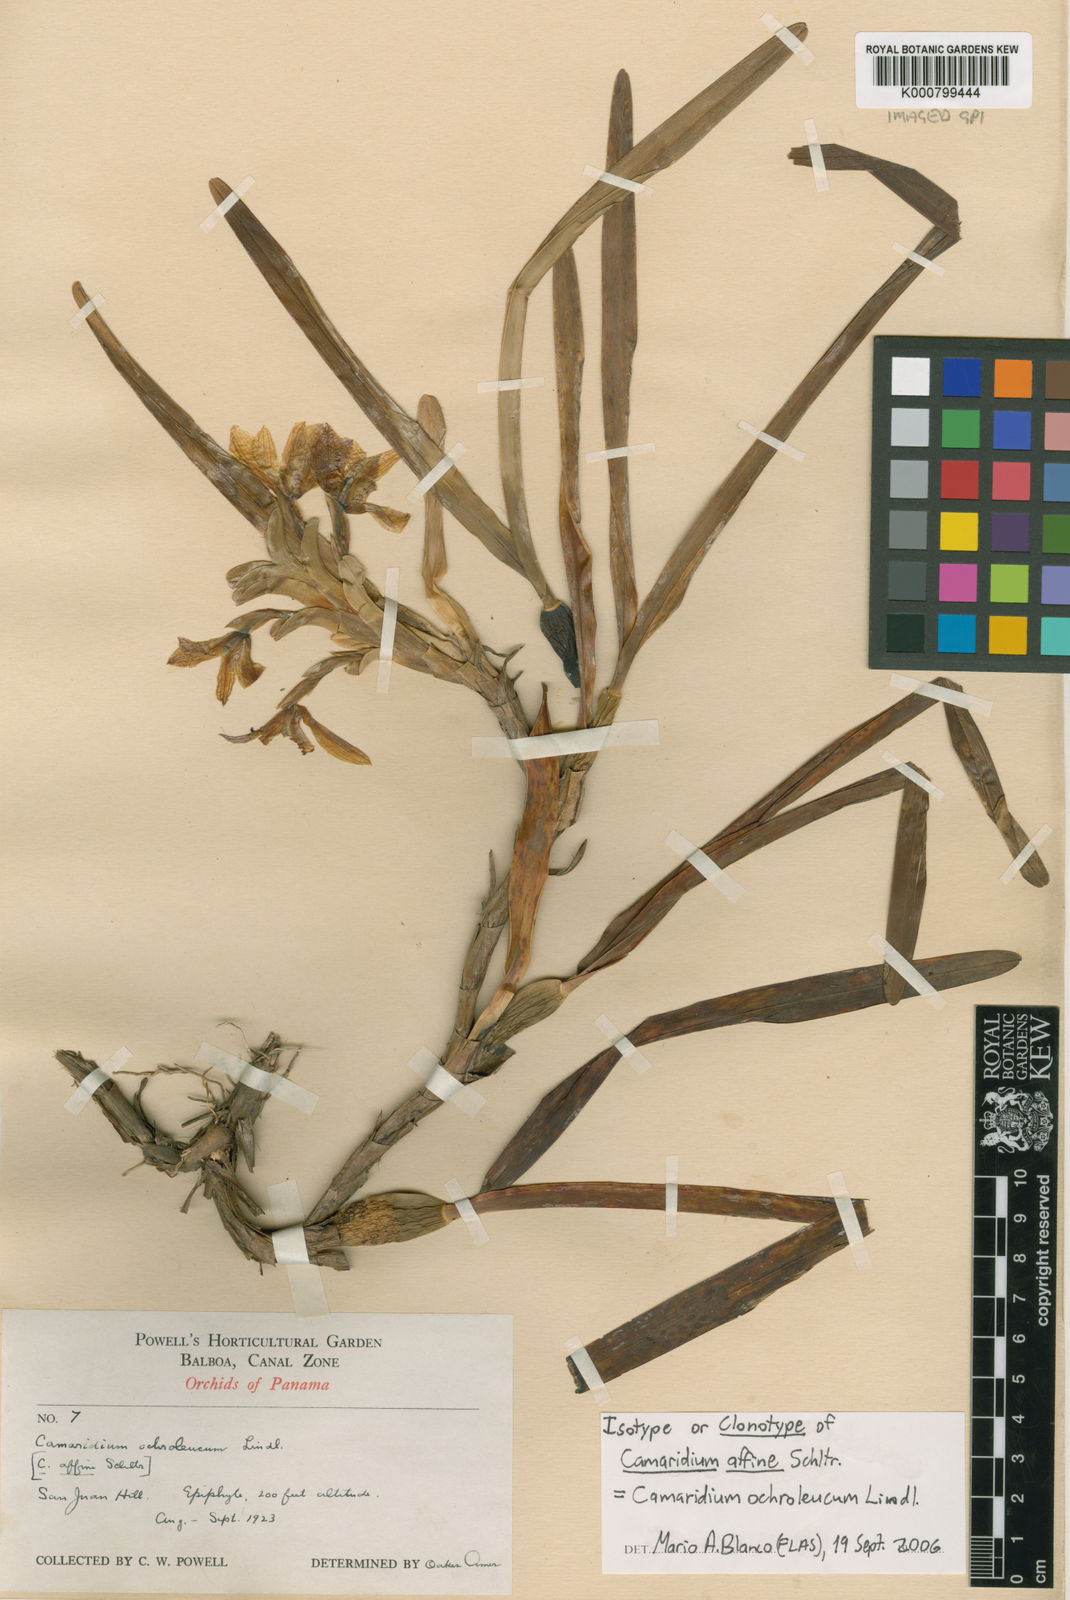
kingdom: Plantae
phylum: Tracheophyta
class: Liliopsida
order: Asparagales
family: Orchidaceae
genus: Maxillaria
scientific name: Maxillaria lutescens
